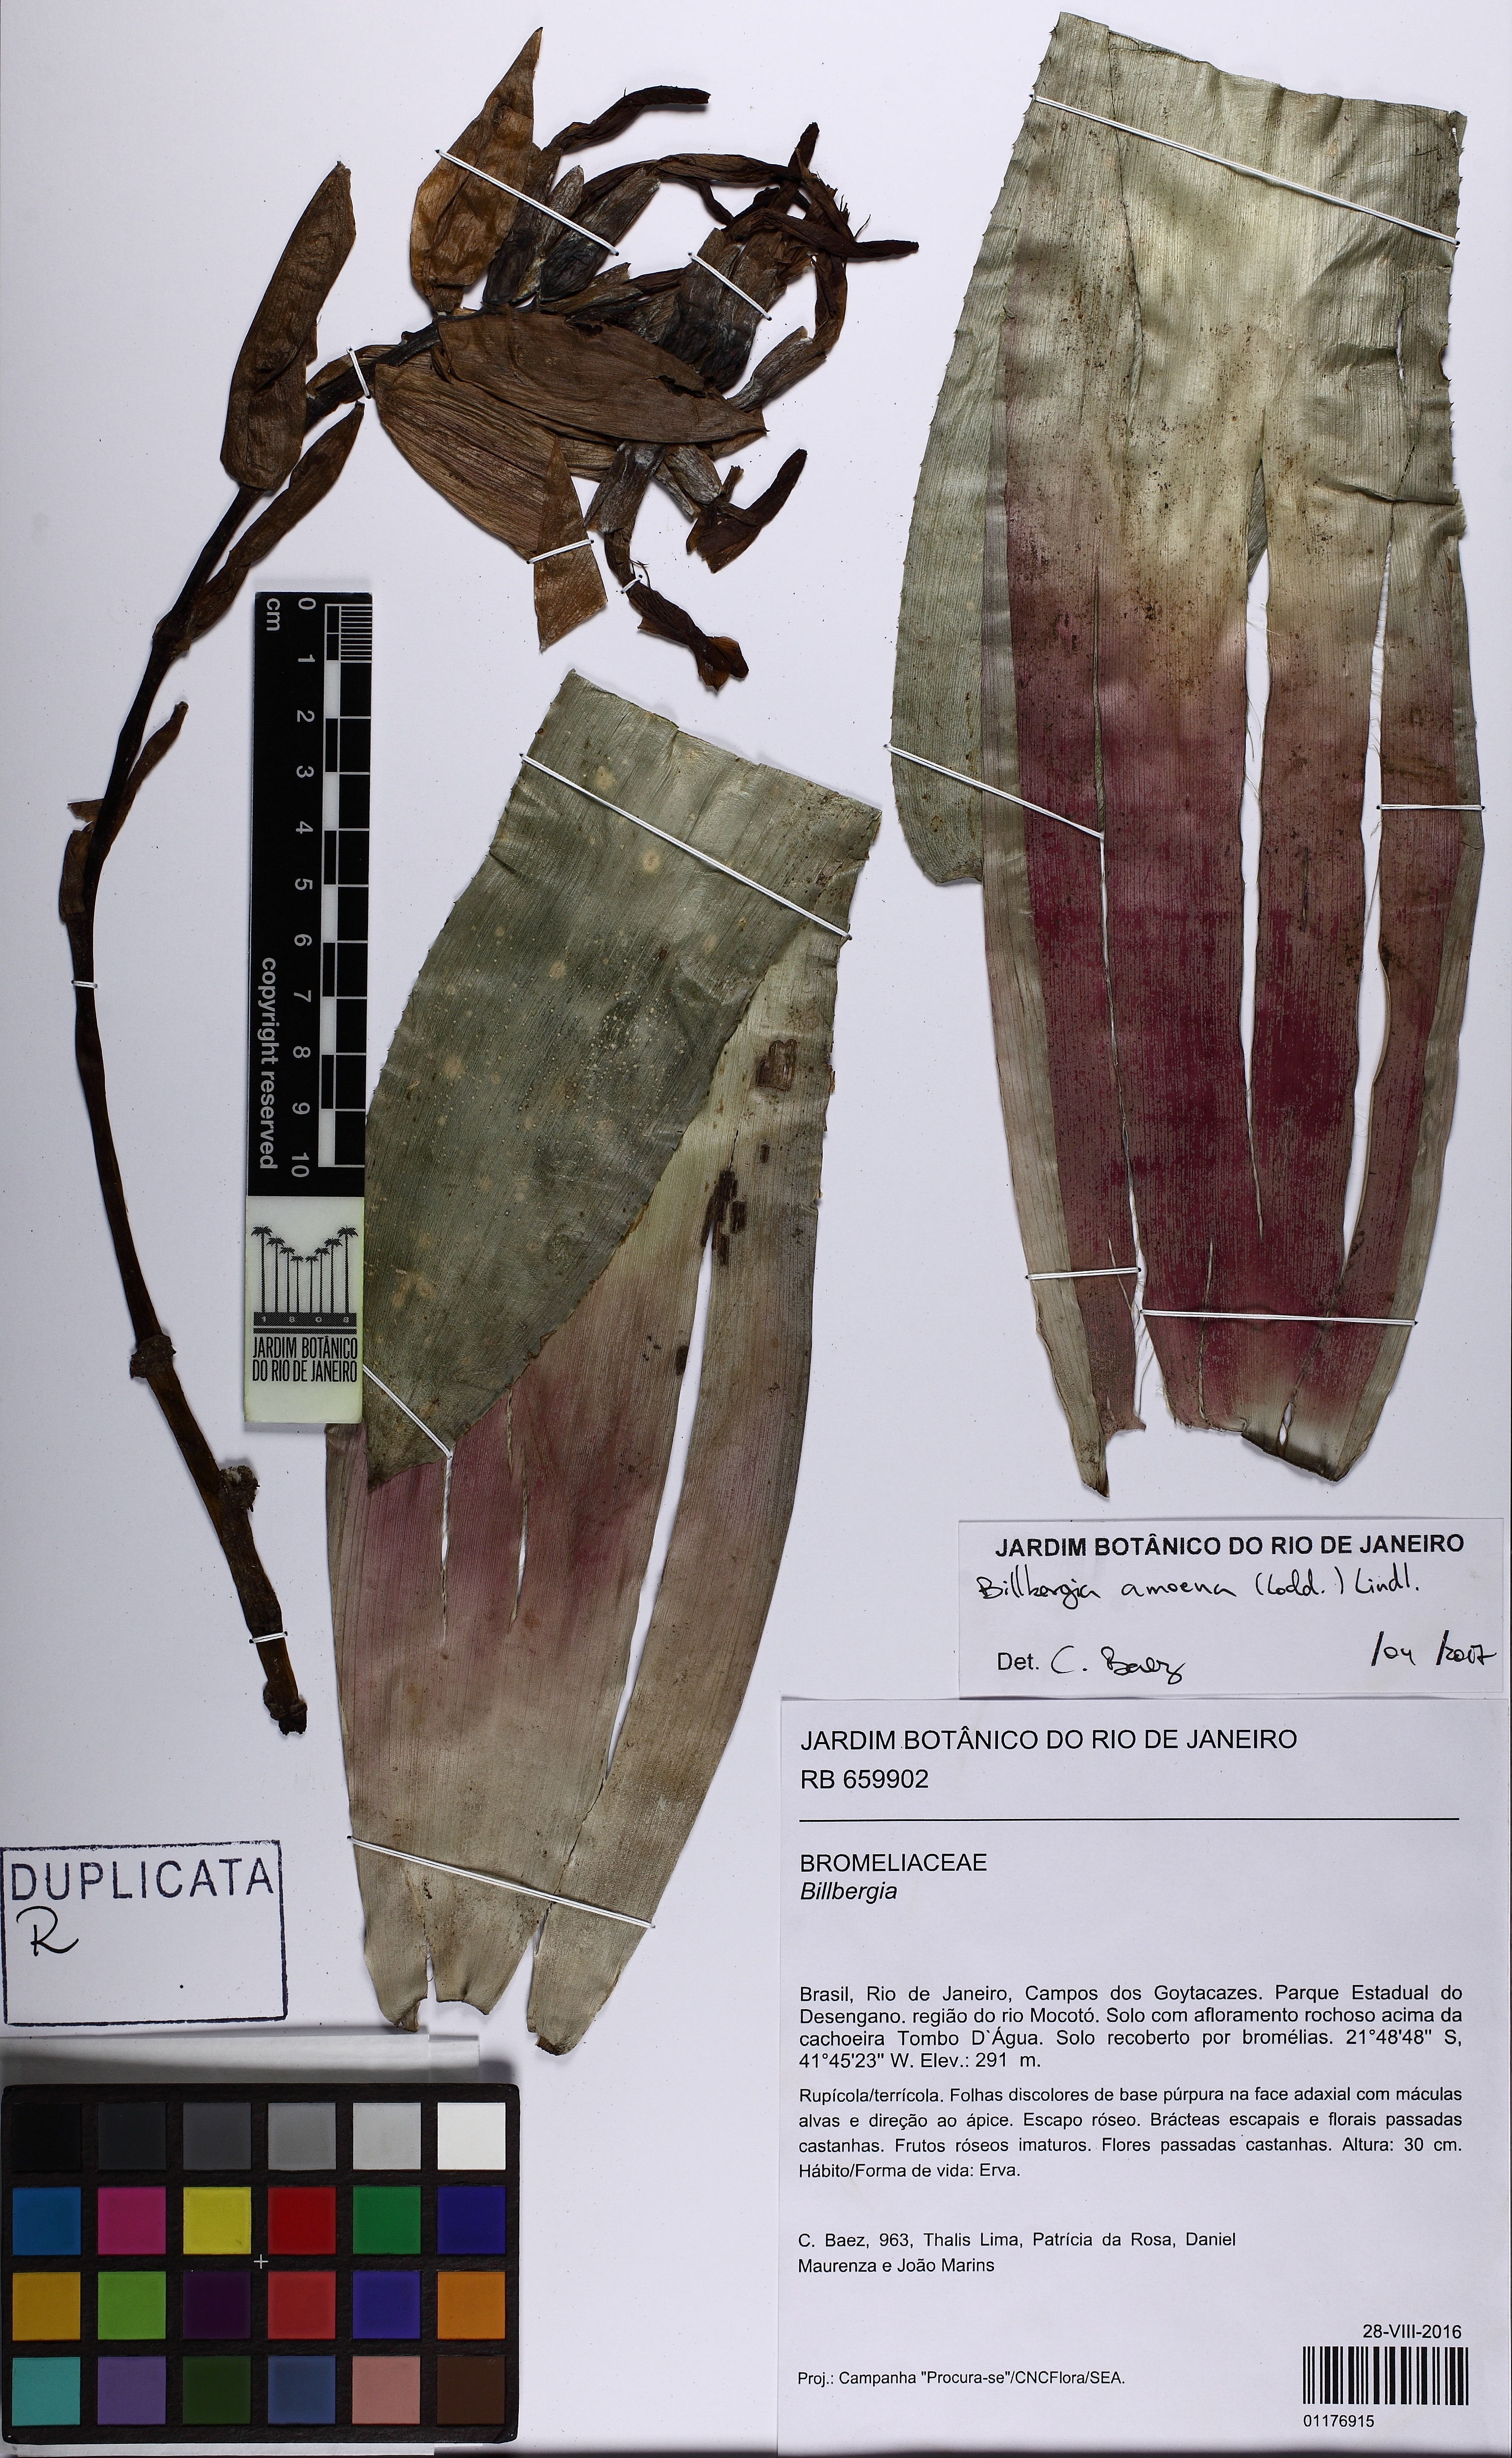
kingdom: Plantae
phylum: Tracheophyta
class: Liliopsida
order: Poales
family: Bromeliaceae
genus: Billbergia
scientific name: Billbergia amoena
